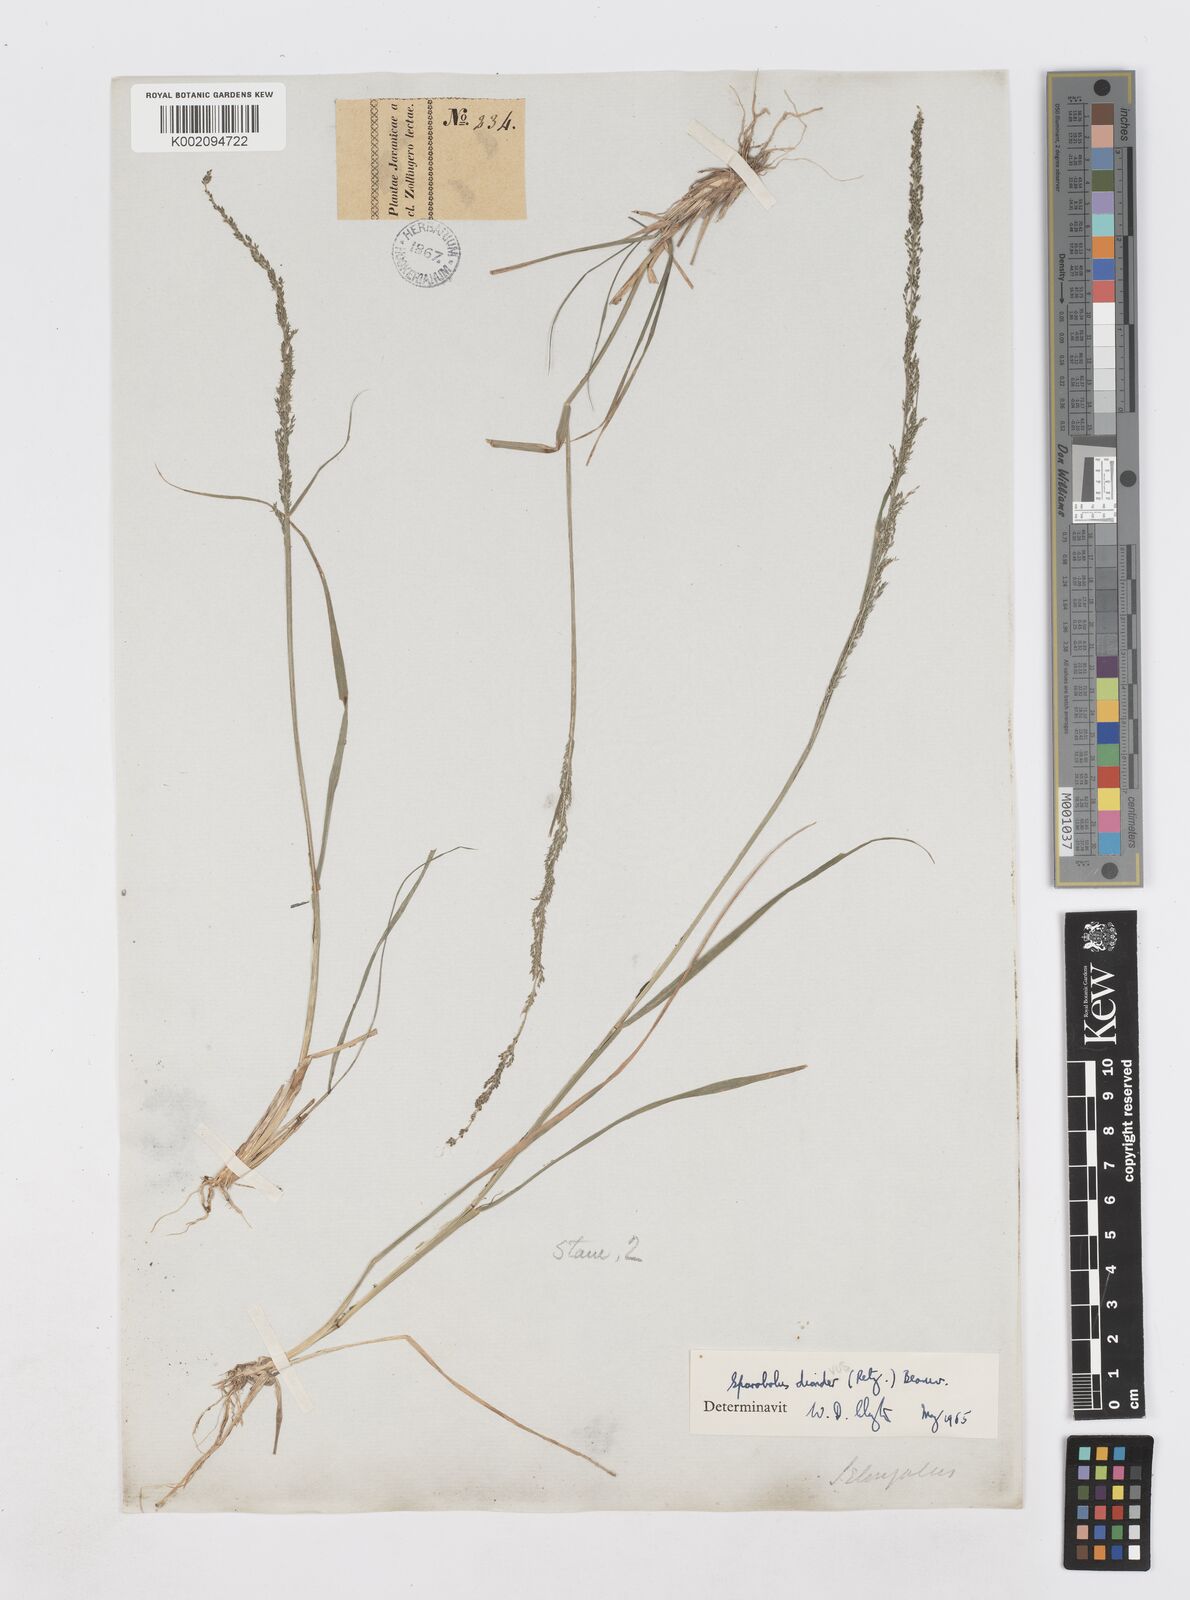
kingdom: Plantae
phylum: Tracheophyta
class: Liliopsida
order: Poales
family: Poaceae
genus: Sporobolus
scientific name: Sporobolus diandrus
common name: Tussock dropseed
